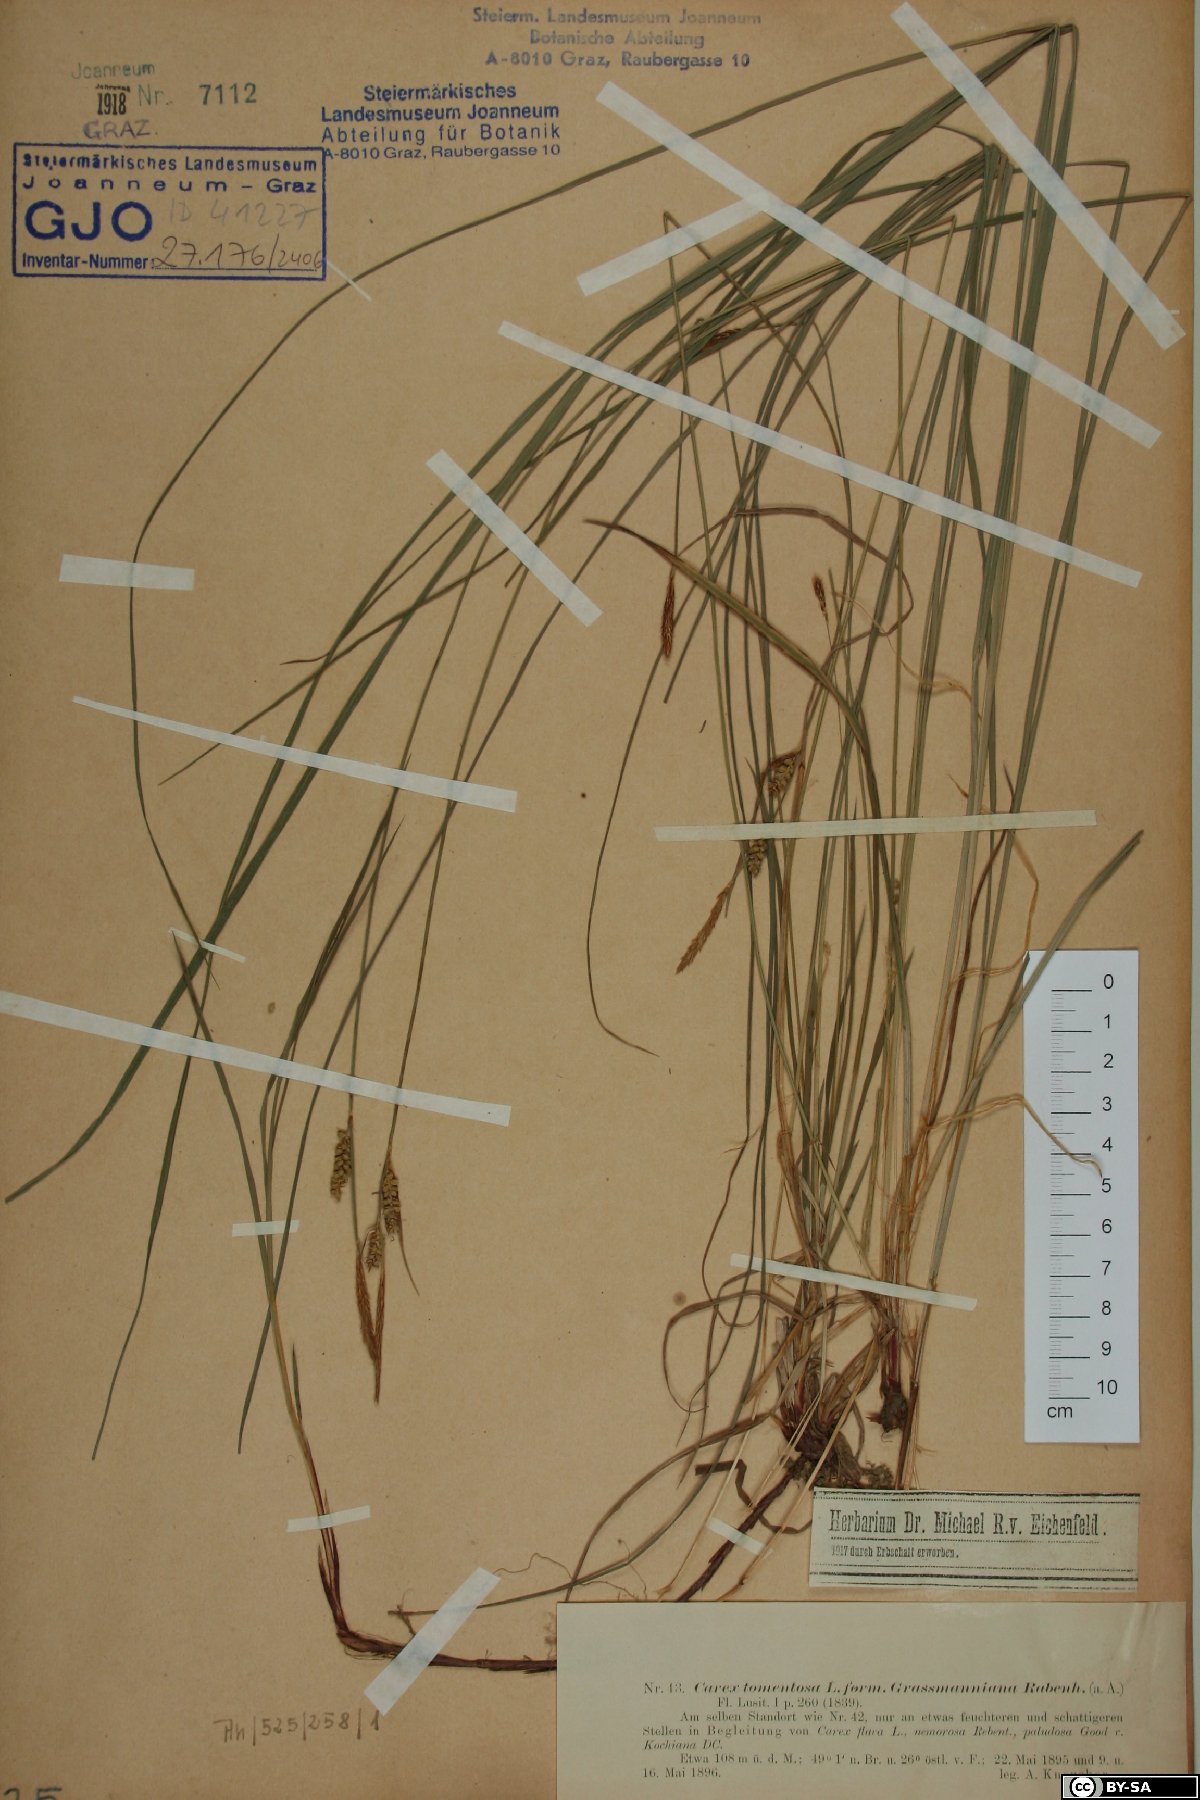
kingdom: Plantae
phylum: Tracheophyta
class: Liliopsida
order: Poales
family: Cyperaceae
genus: Carex
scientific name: Carex tomentosa
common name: Downy-fruited sedge
